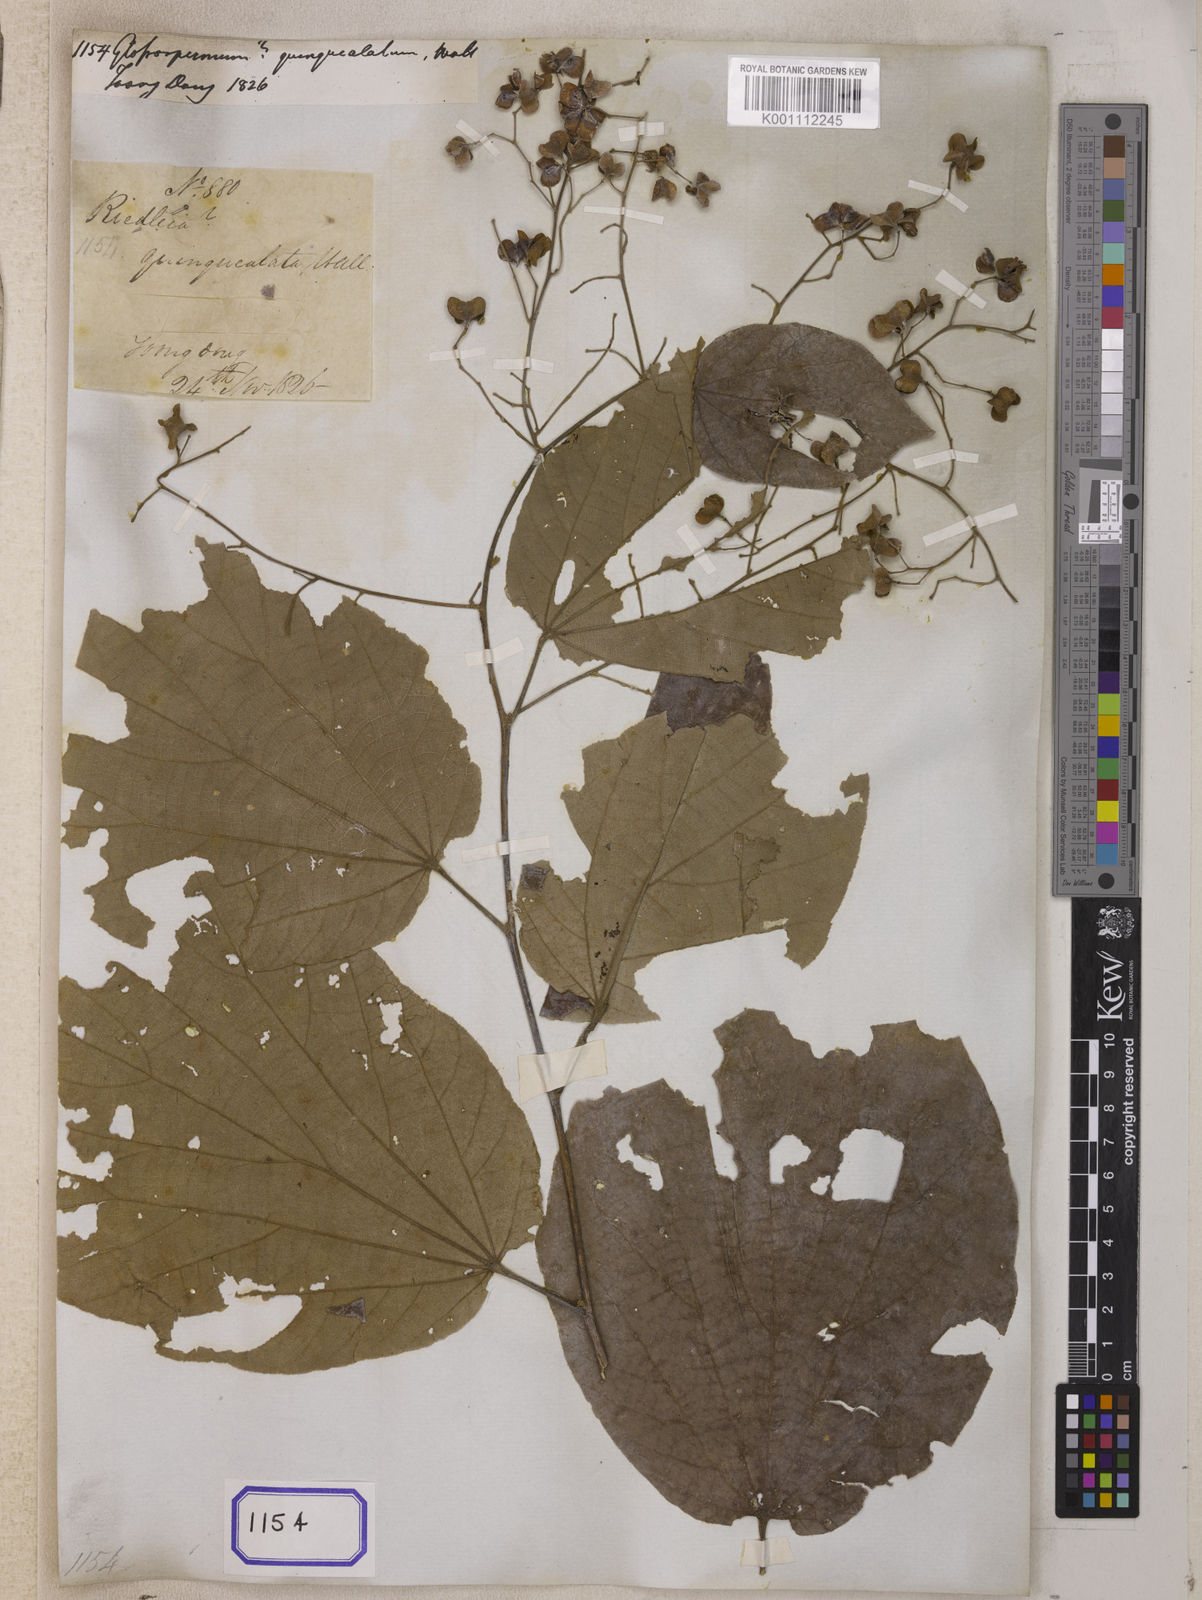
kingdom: Plantae
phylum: Tracheophyta
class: Magnoliopsida
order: Malvales
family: Malvaceae
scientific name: Malvaceae
